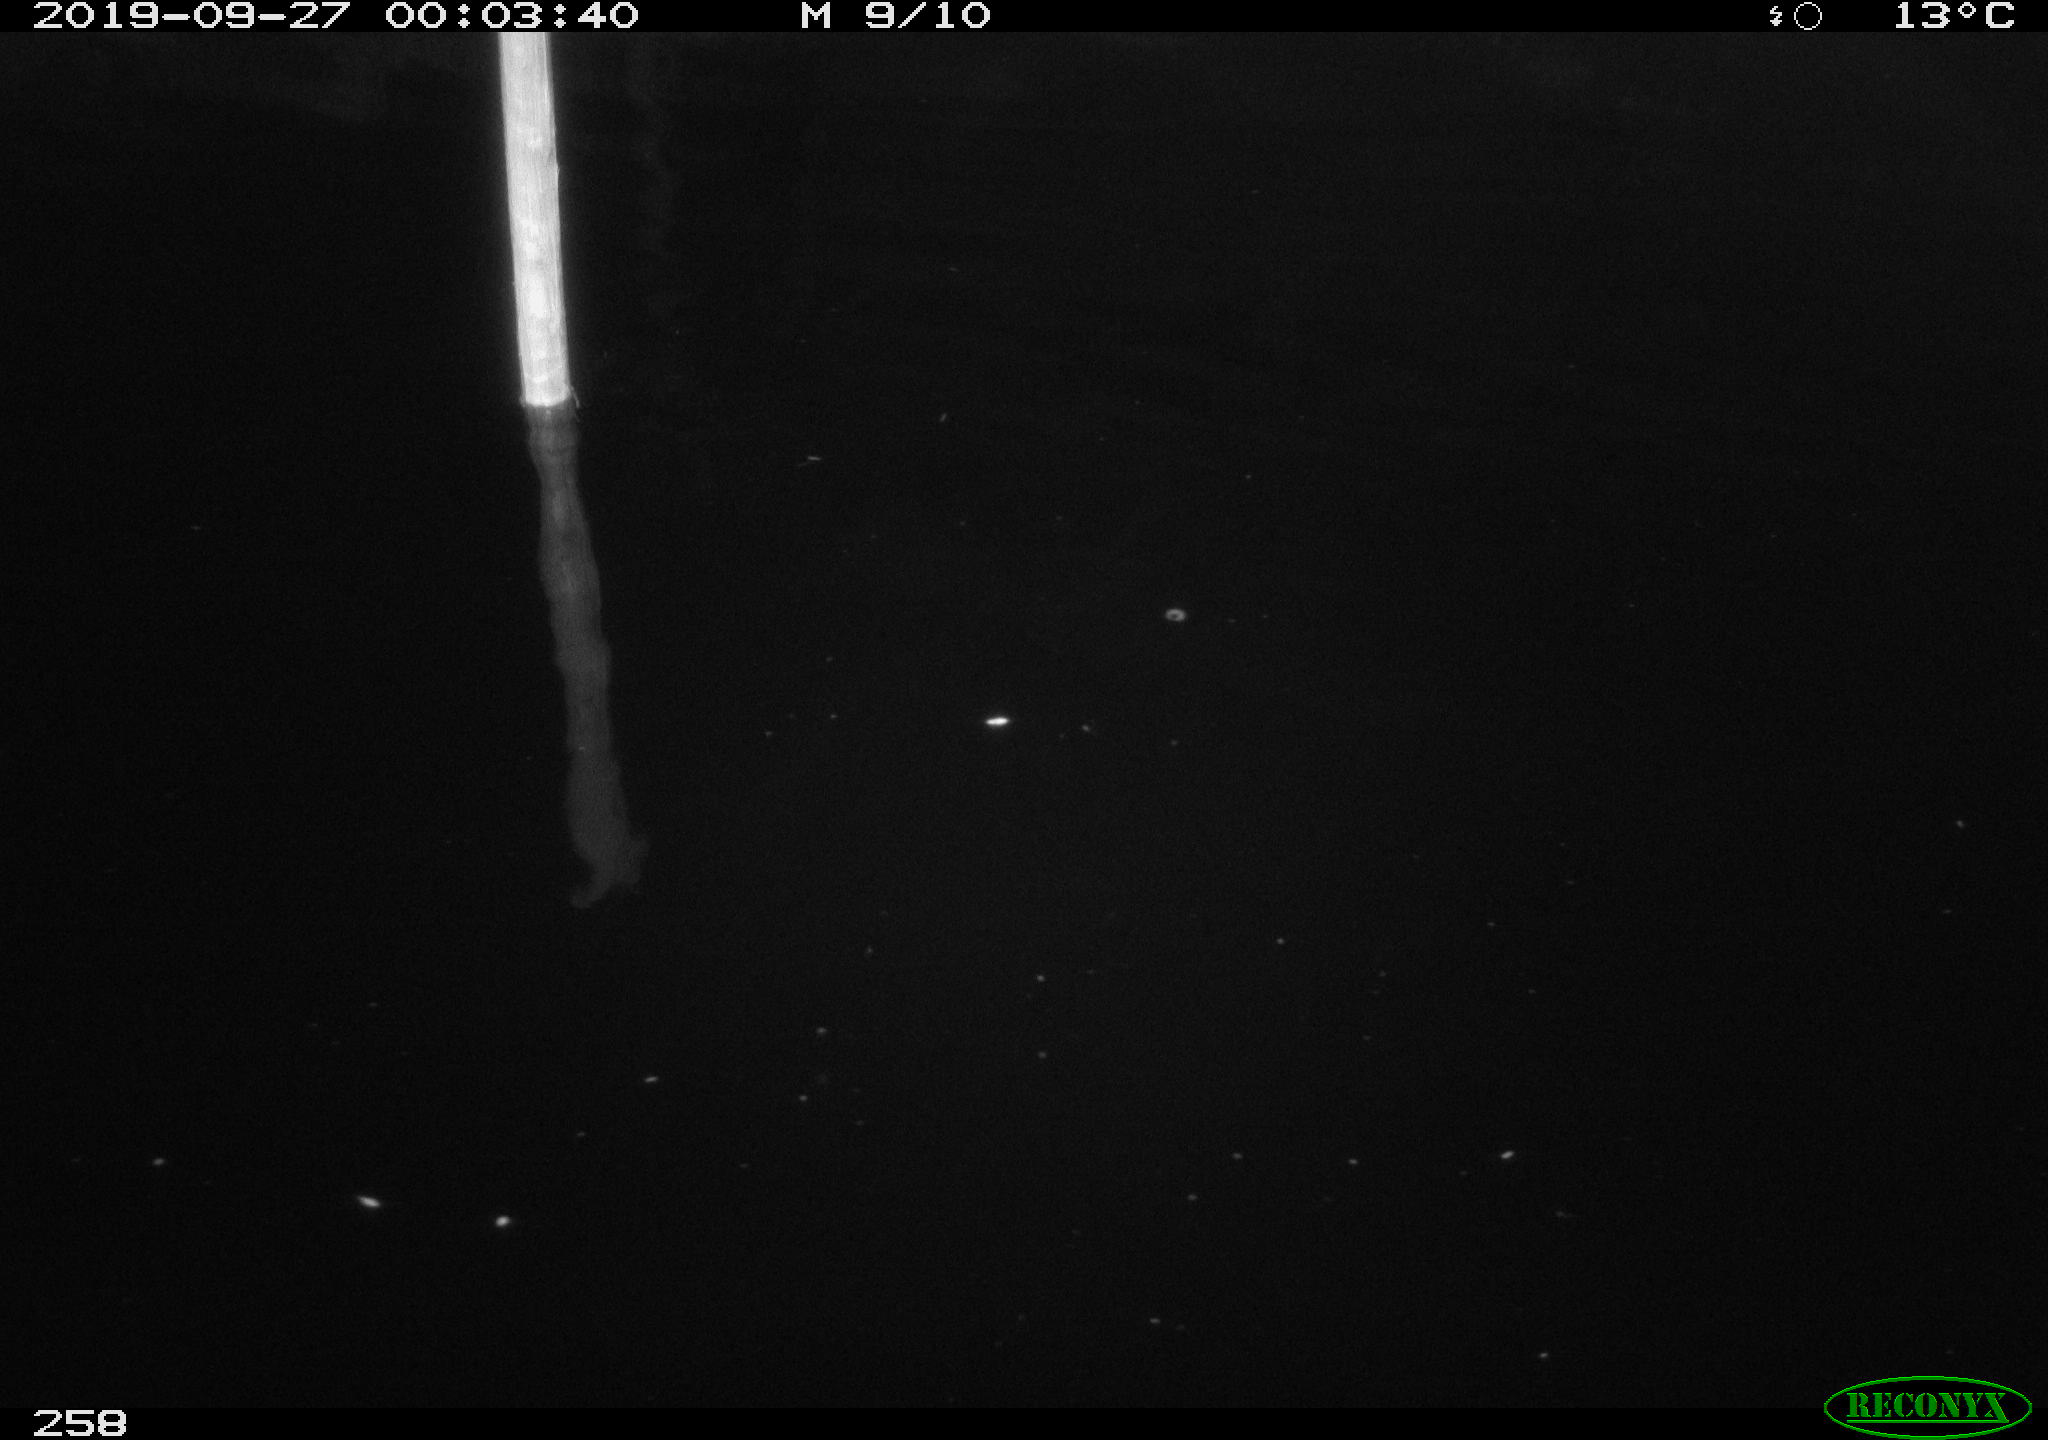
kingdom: Animalia
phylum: Chordata
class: Aves
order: Anseriformes
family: Anatidae
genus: Anas
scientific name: Anas platyrhynchos
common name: Mallard
